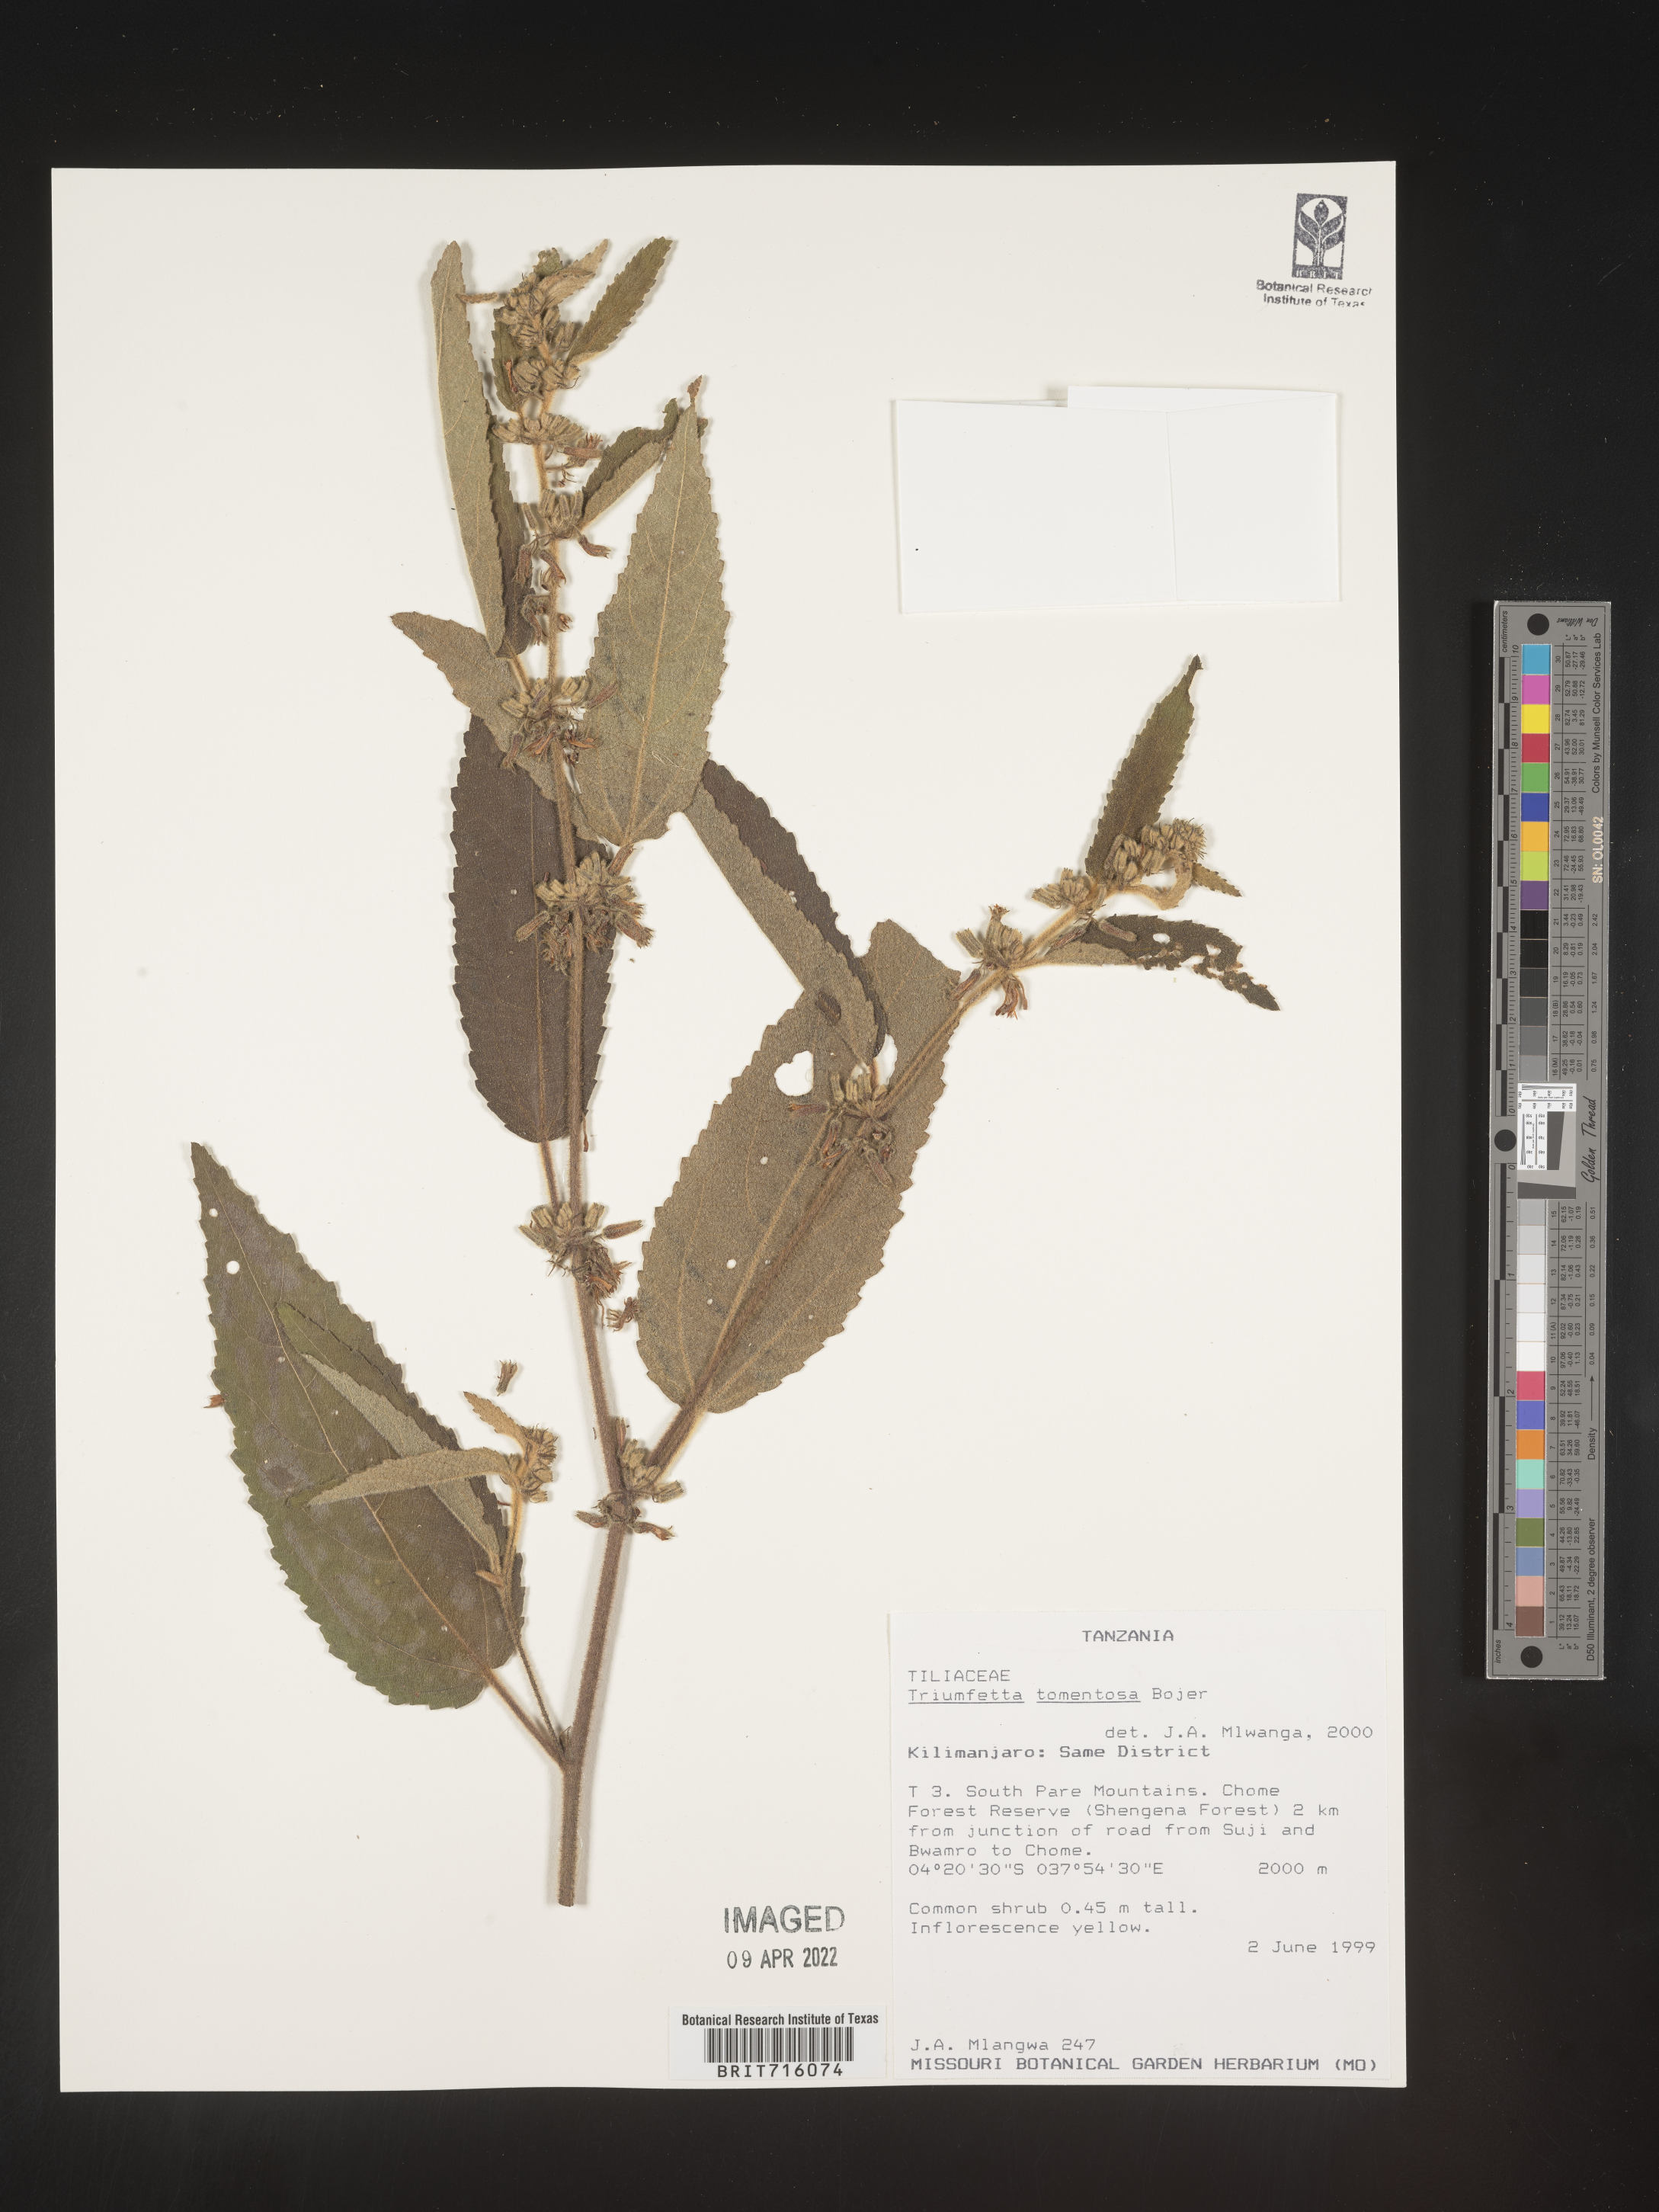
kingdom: Plantae
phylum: Tracheophyta
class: Magnoliopsida
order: Malvales
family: Malvaceae
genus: Triumfetta
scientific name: Triumfetta
